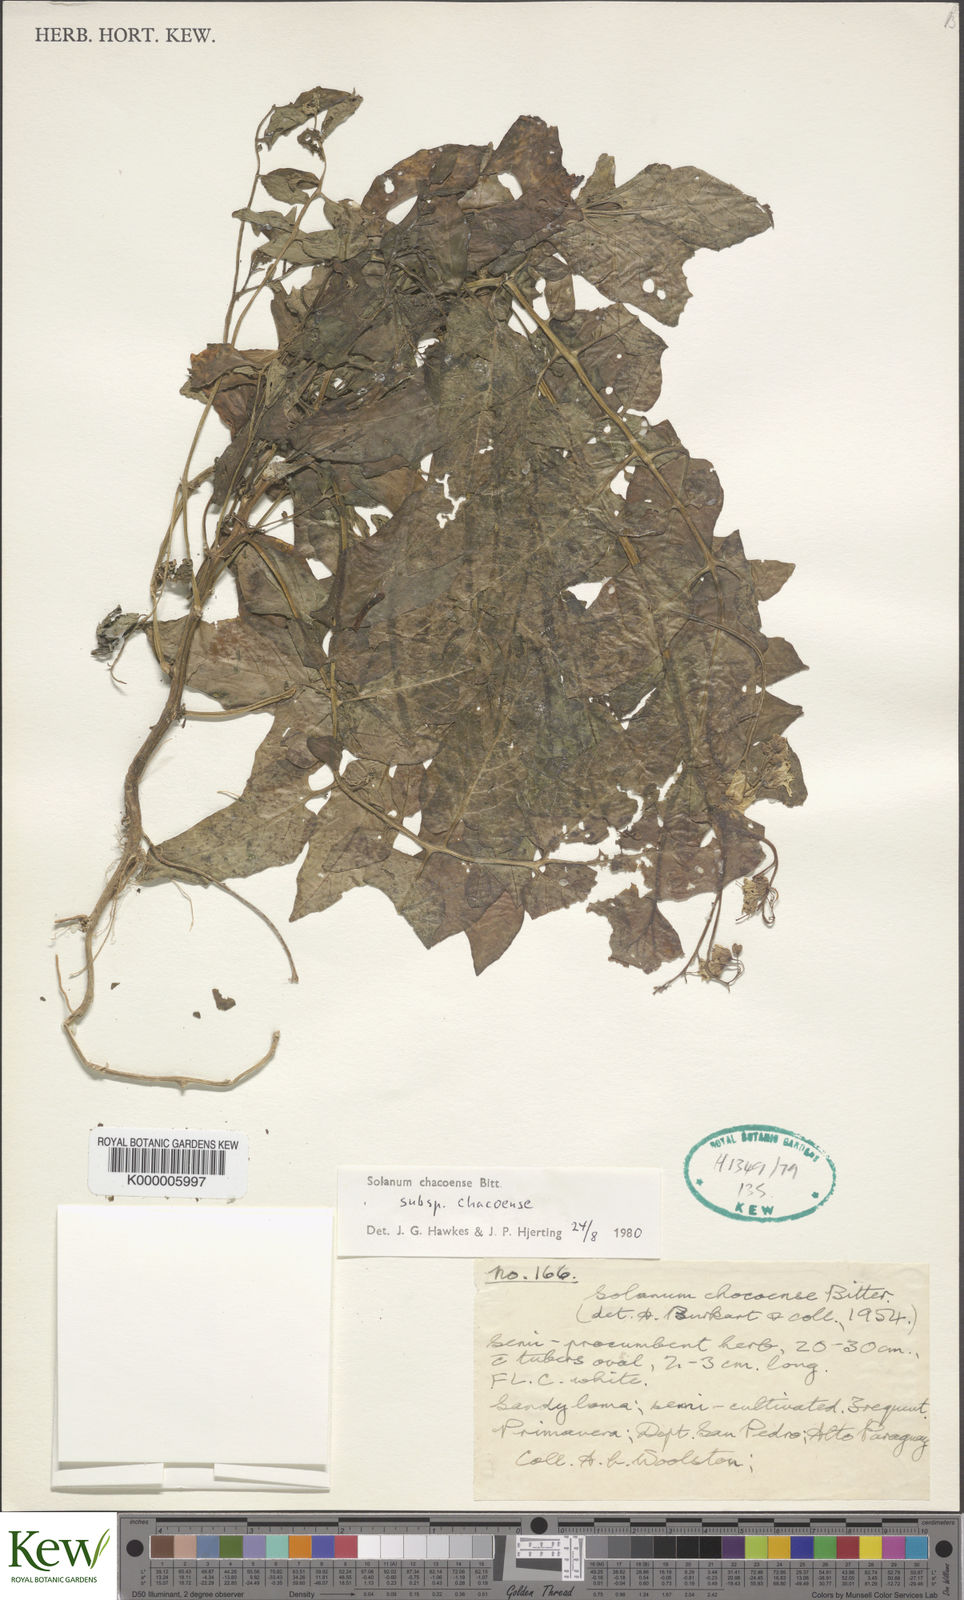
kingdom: Plantae
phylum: Tracheophyta
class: Magnoliopsida
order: Solanales
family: Solanaceae
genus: Solanum
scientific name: Solanum chacoense
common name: Chaco potato
